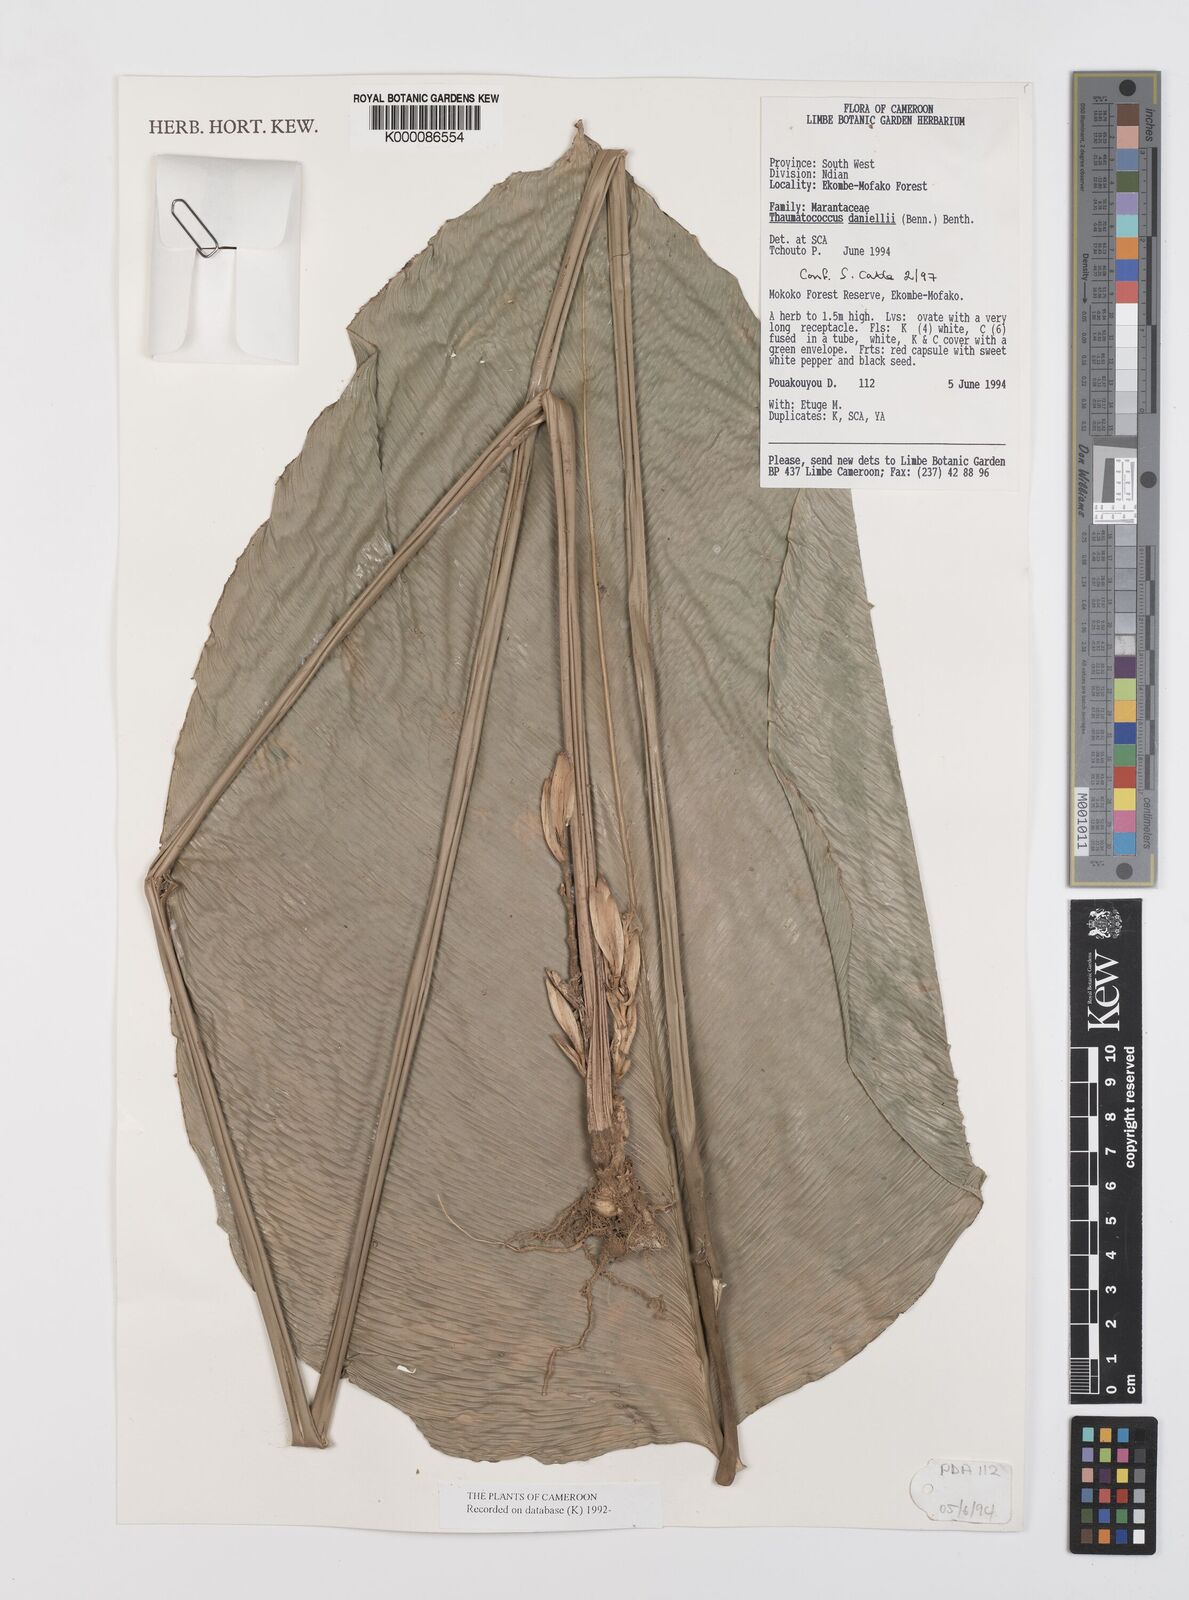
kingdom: Plantae
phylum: Tracheophyta
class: Liliopsida
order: Zingiberales
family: Marantaceae
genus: Thaumatococcus
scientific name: Thaumatococcus
